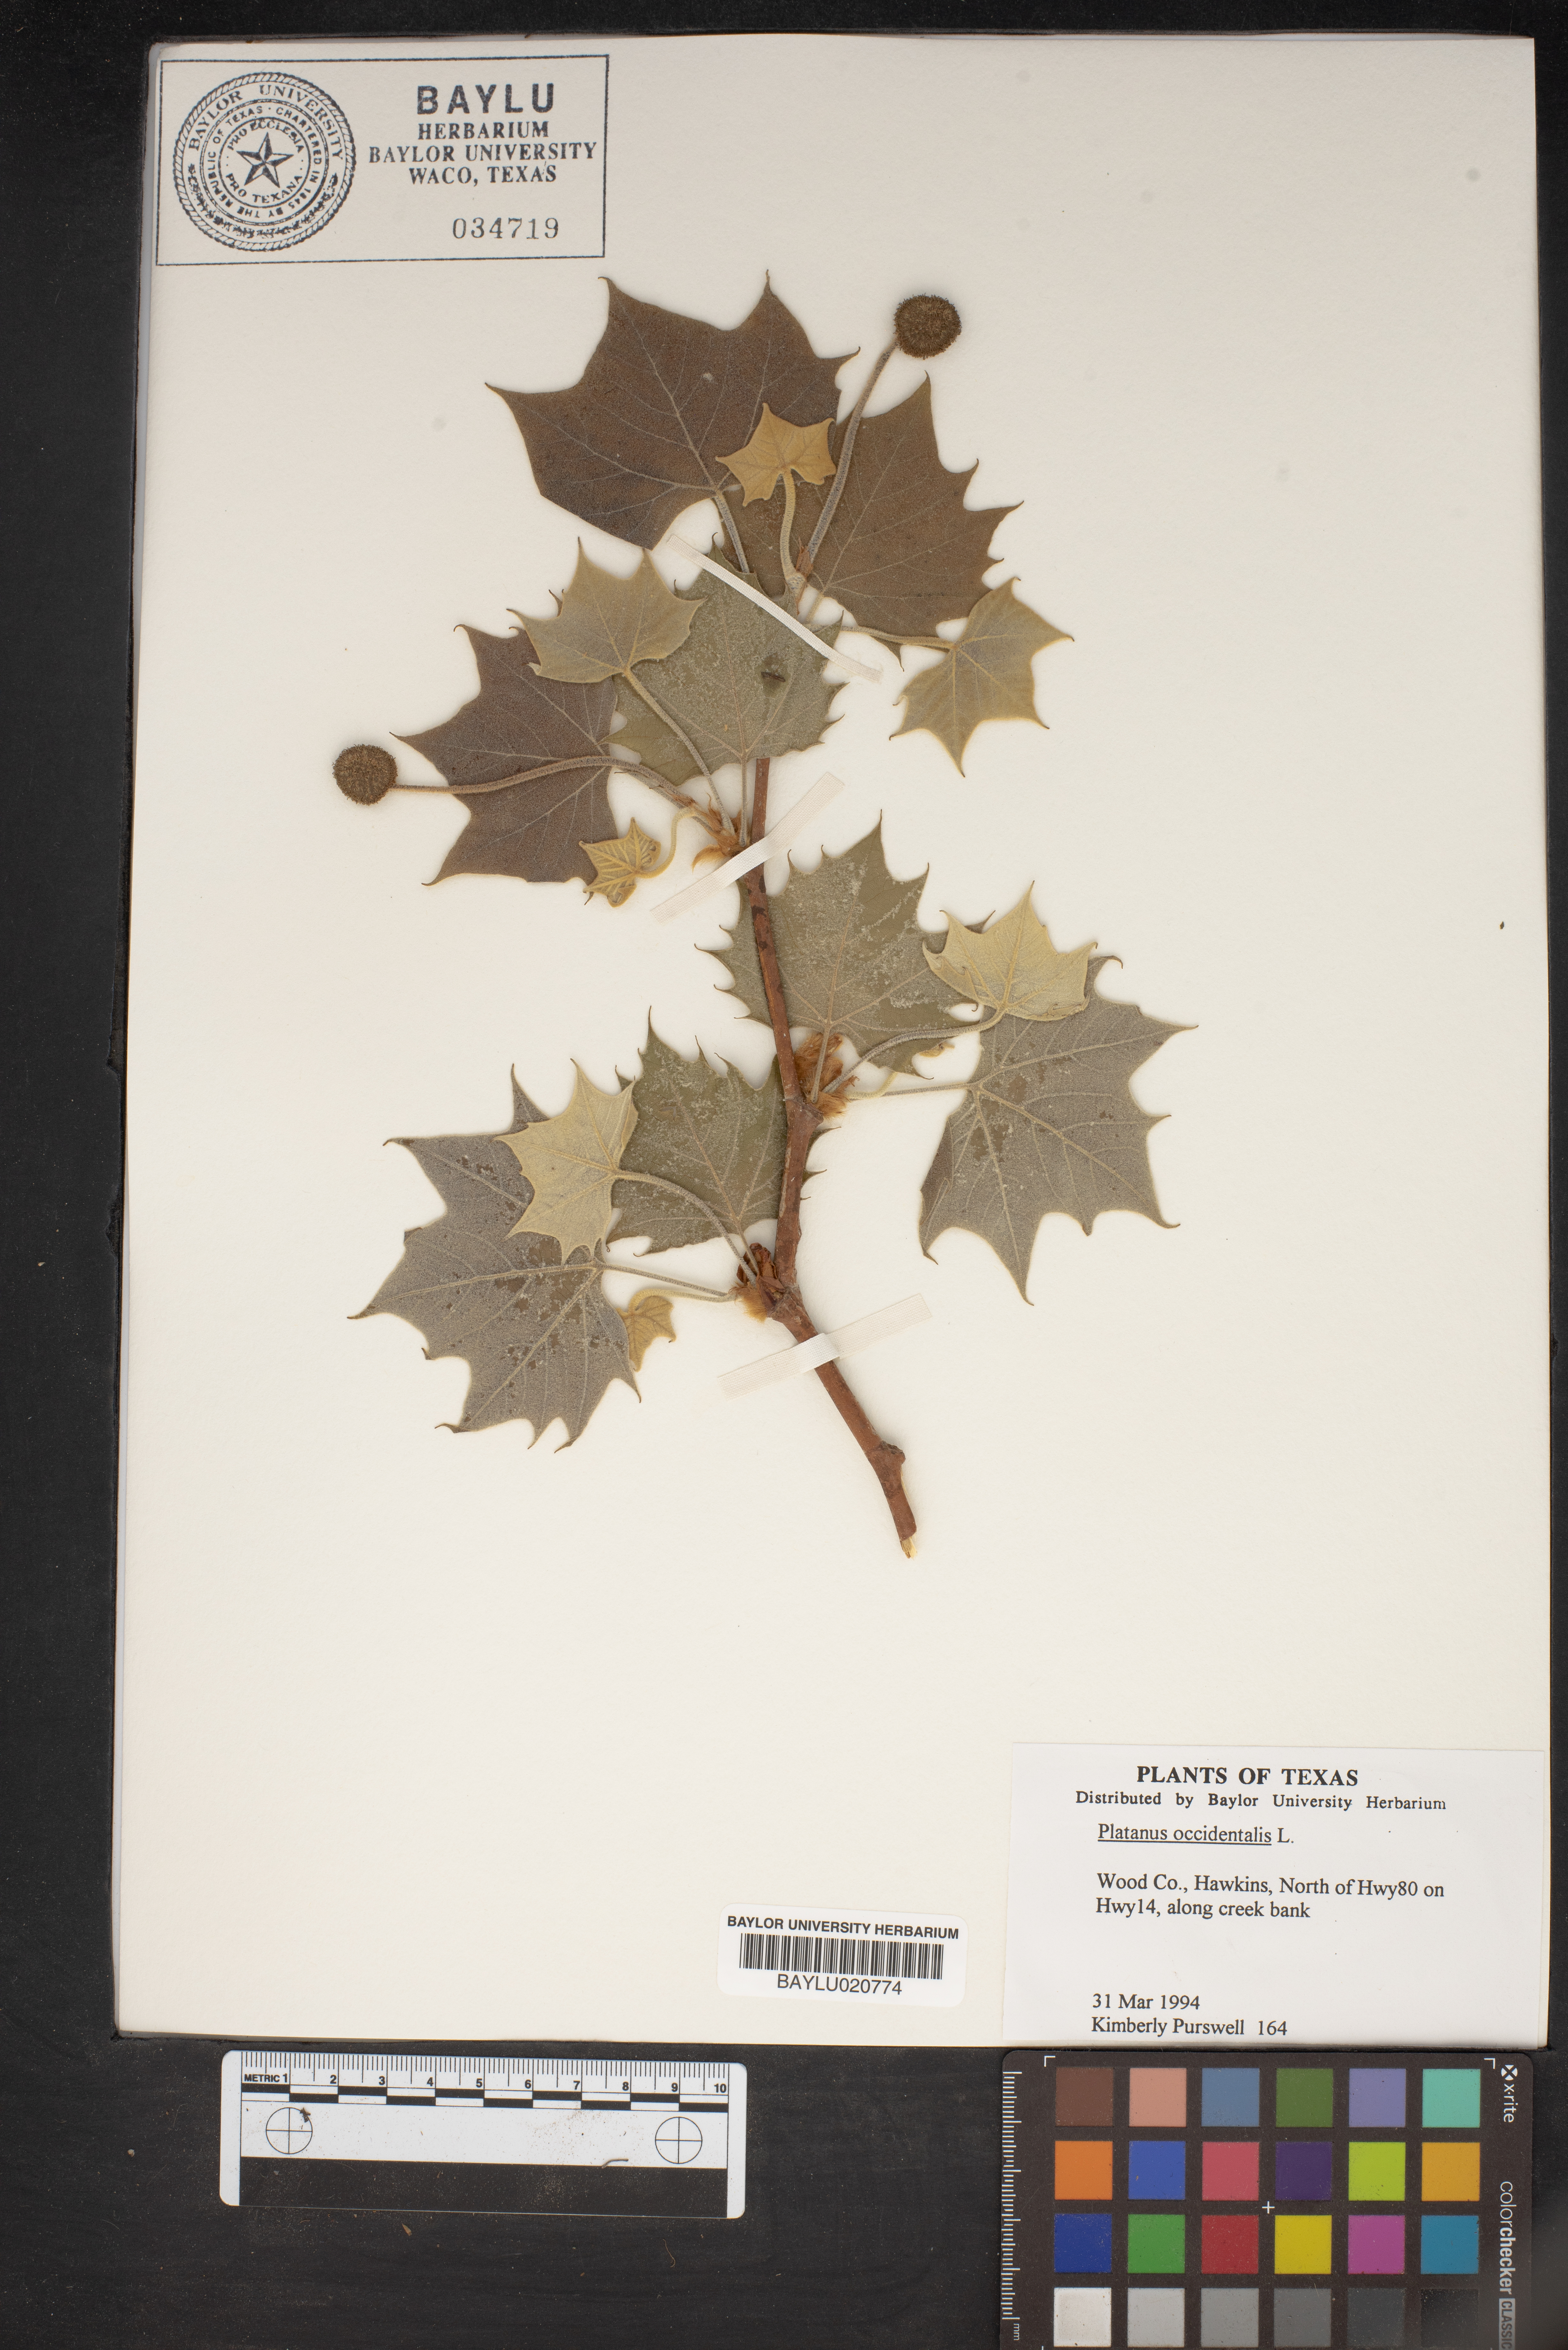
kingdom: Plantae
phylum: Tracheophyta
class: Magnoliopsida
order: Proteales
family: Platanaceae
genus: Platanus
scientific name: Platanus occidentalis
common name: American sycamore
